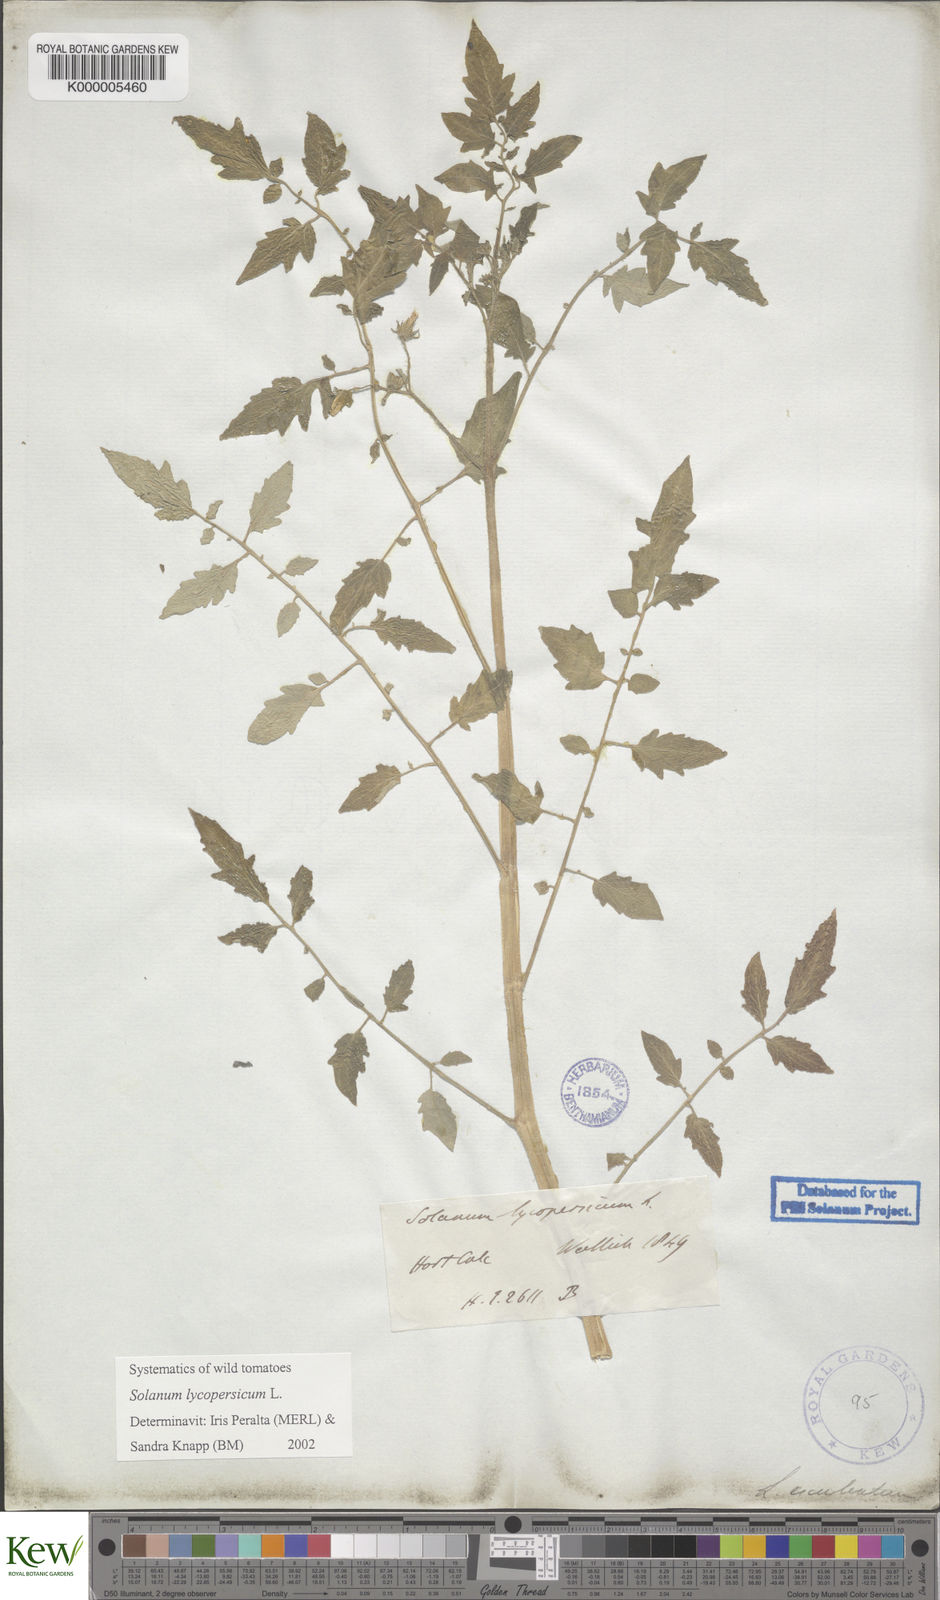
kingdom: Plantae
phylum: Tracheophyta
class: Magnoliopsida
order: Solanales
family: Solanaceae
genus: Solanum
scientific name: Solanum lycopersicum
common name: Garden tomato
